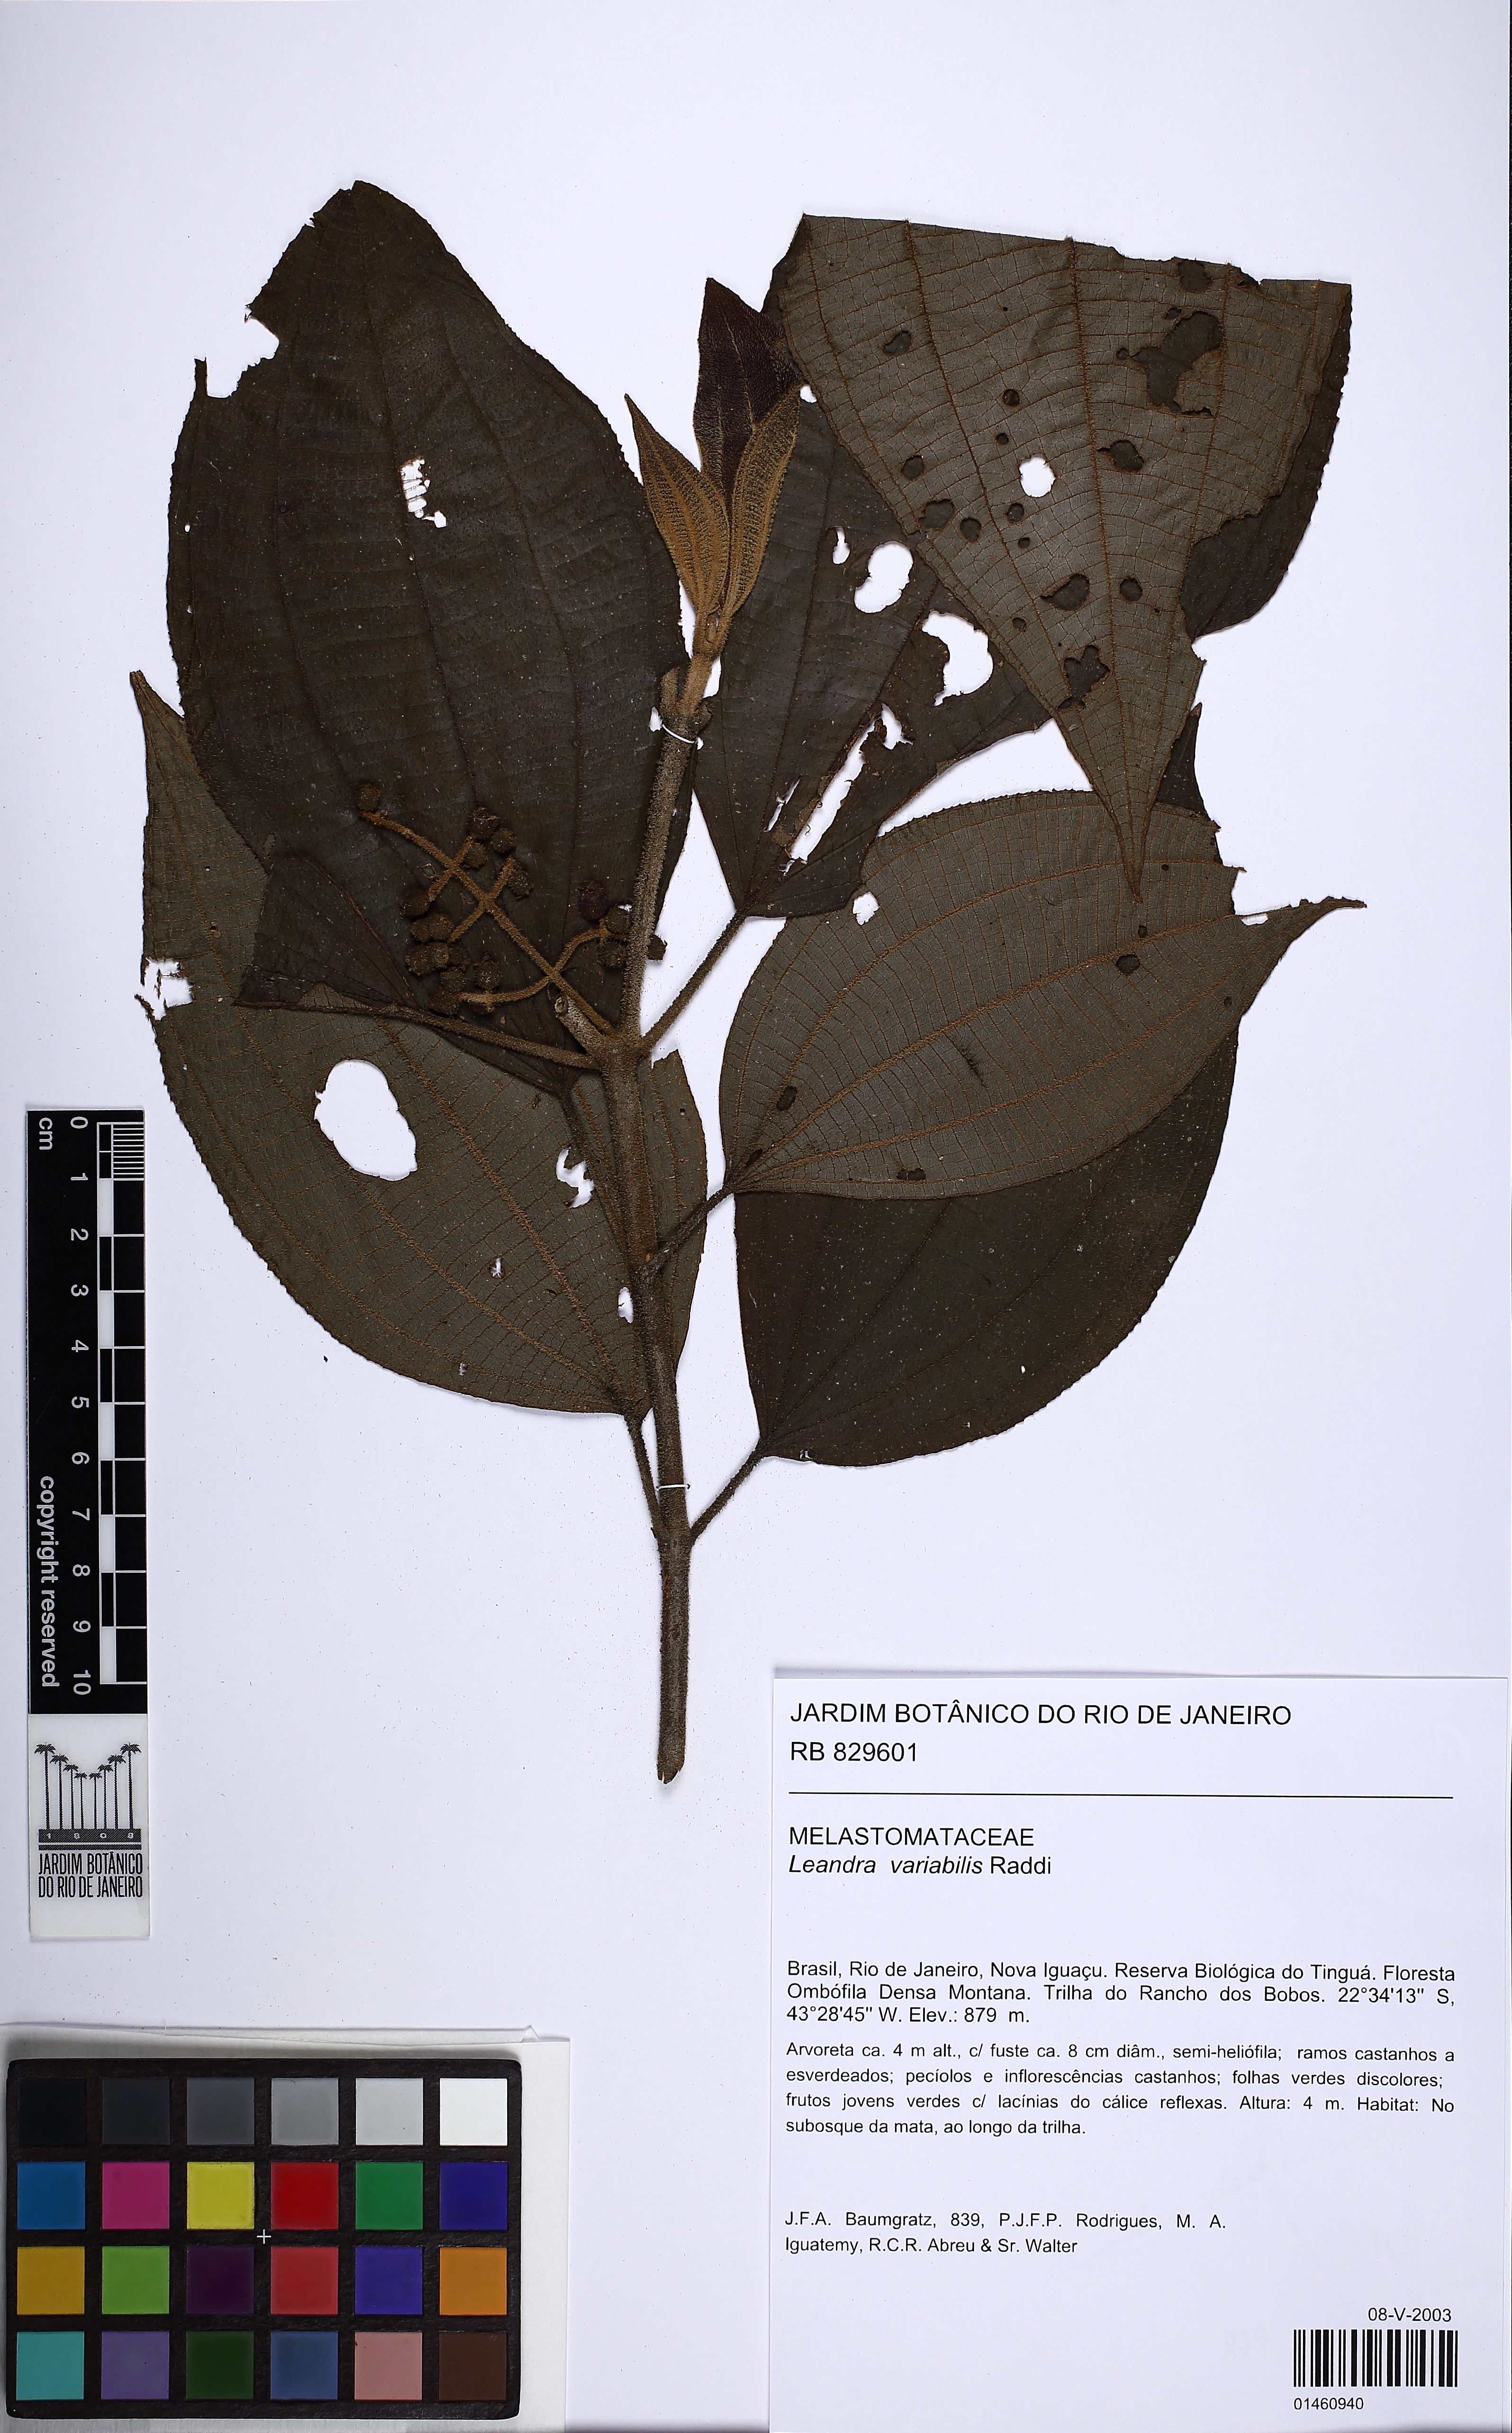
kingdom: Plantae
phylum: Tracheophyta
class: Magnoliopsida
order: Myrtales
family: Melastomataceae
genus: Miconia
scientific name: Miconia dasytricha
